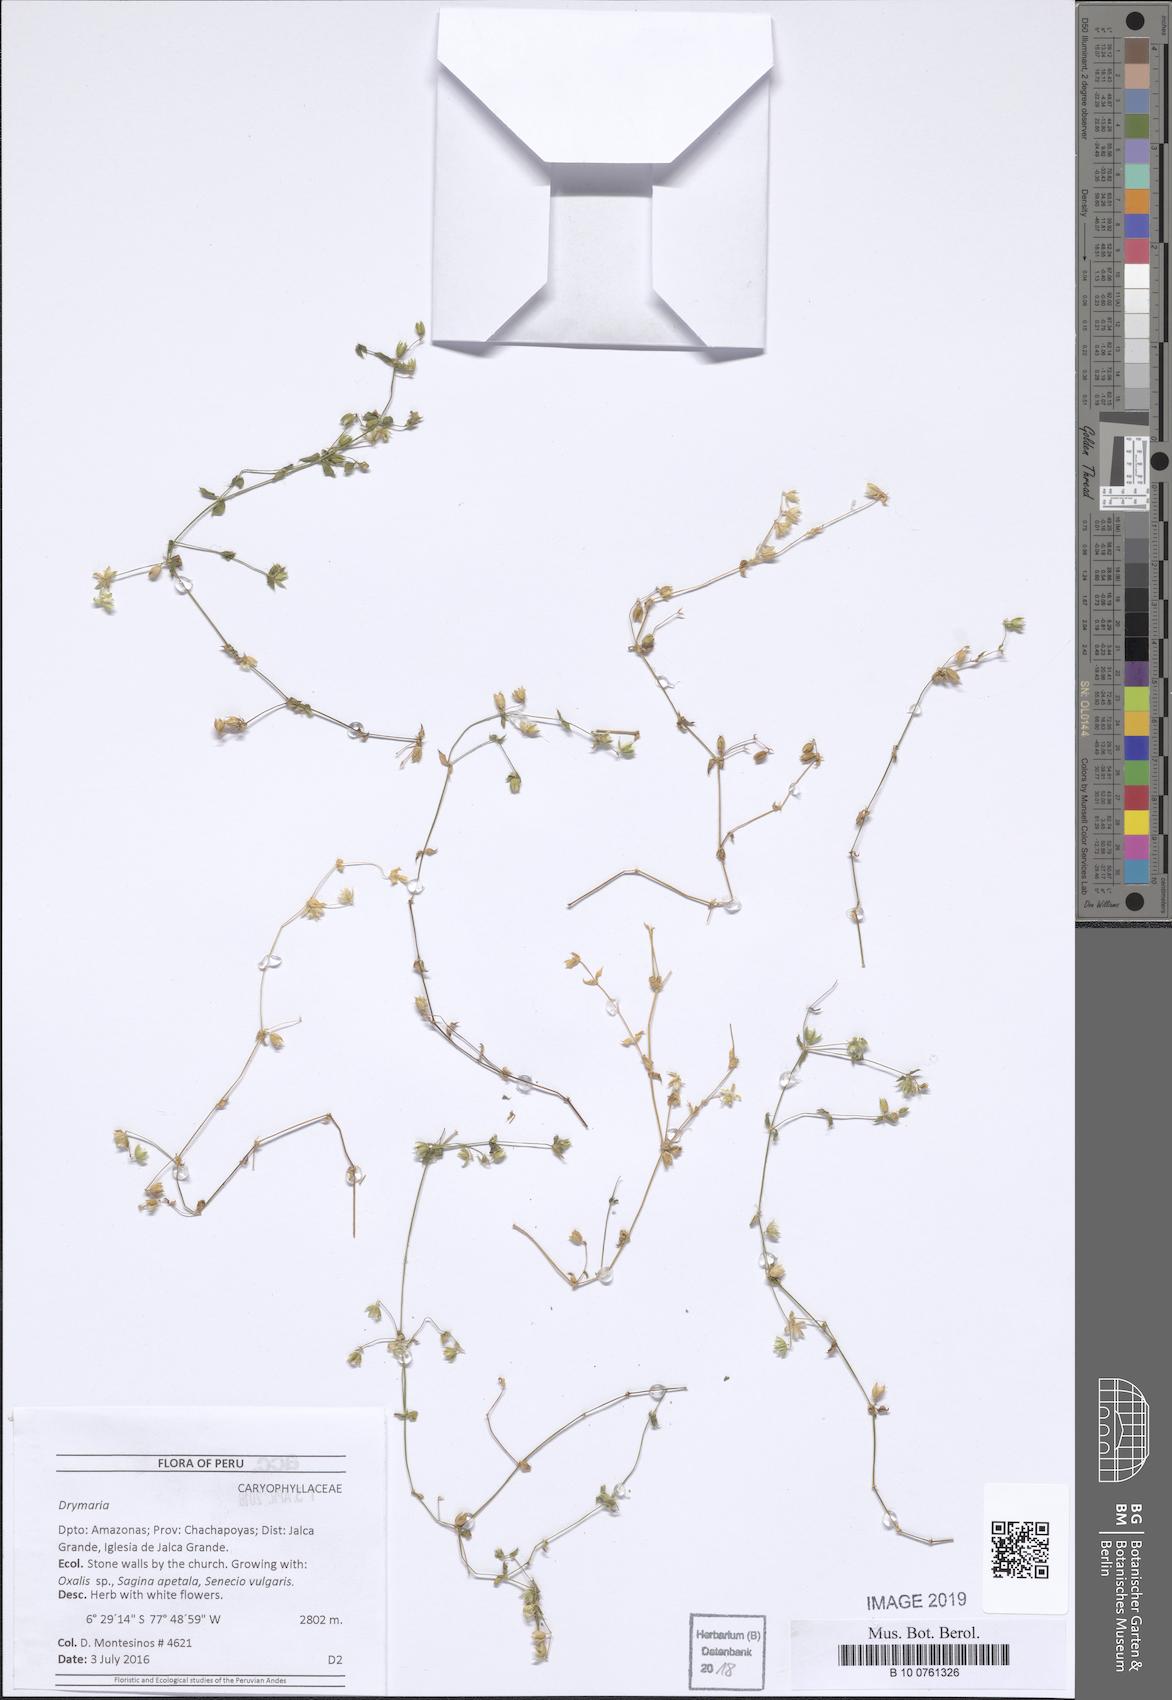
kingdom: Plantae
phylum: Tracheophyta
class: Magnoliopsida
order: Caryophyllales
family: Caryophyllaceae
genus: Drymaria
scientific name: Drymaria
